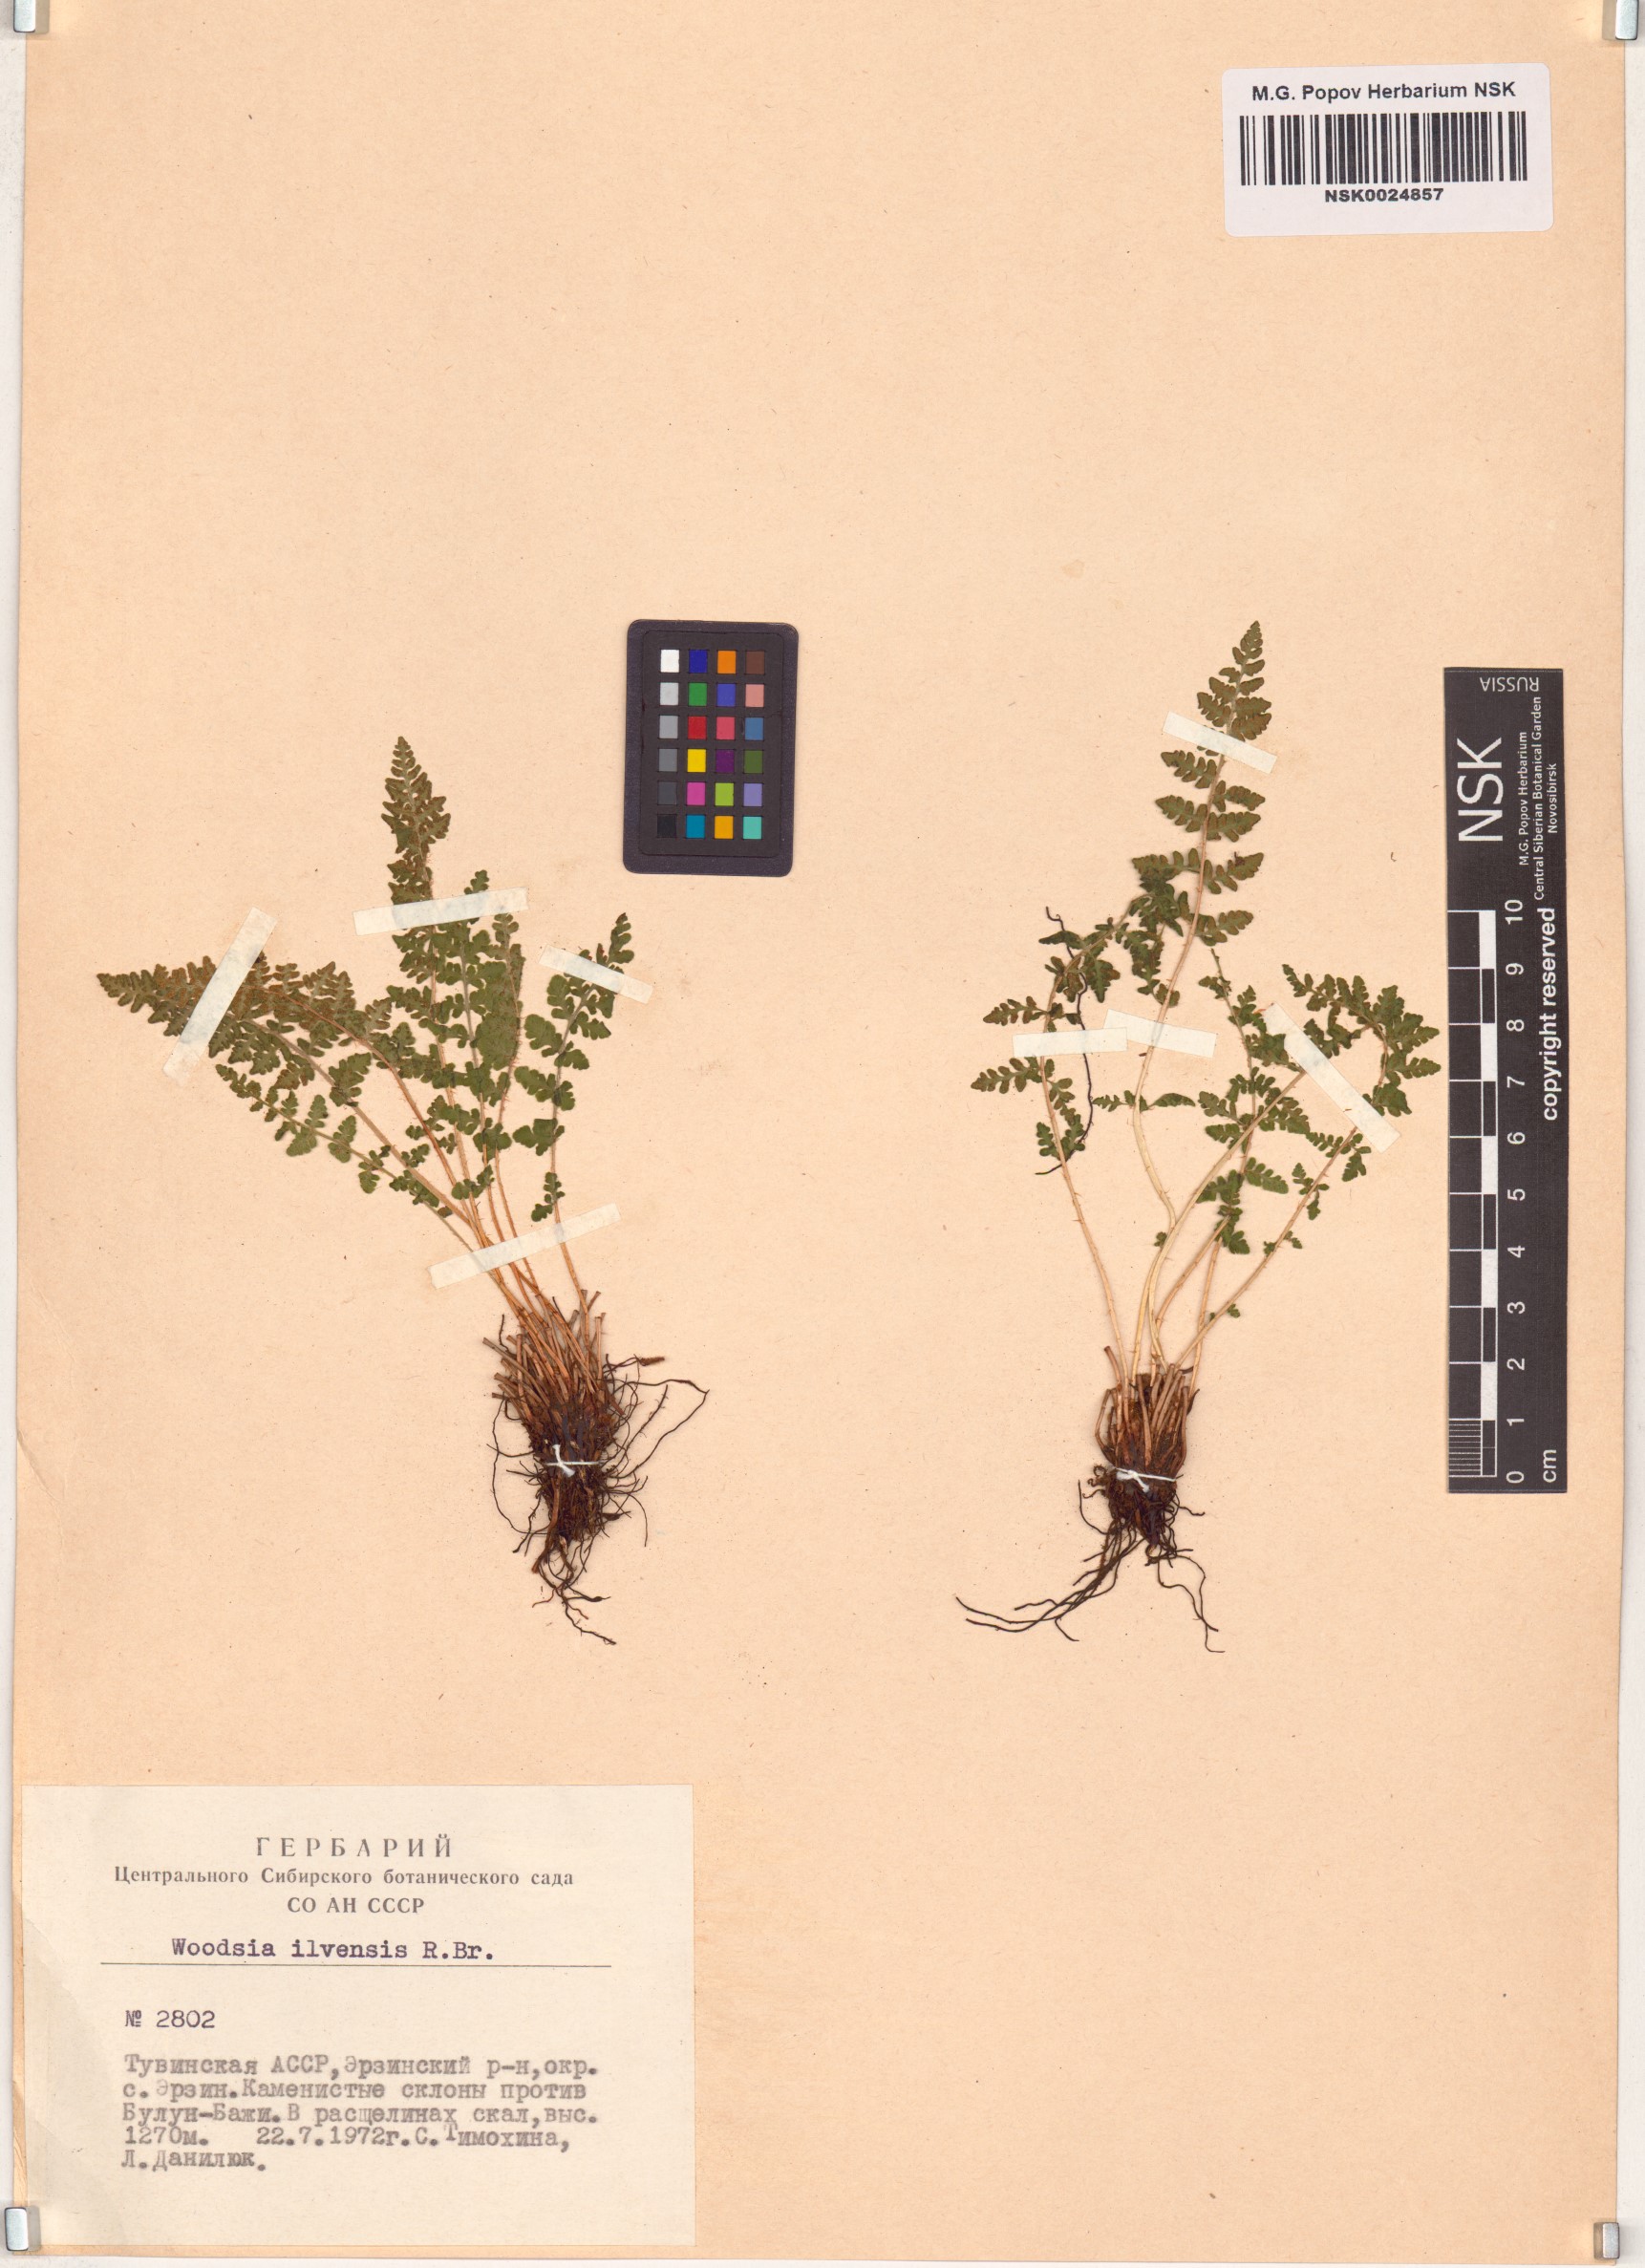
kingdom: Plantae
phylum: Tracheophyta
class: Polypodiopsida
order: Polypodiales
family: Woodsiaceae
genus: Woodsia
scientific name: Woodsia ilvensis
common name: Fragrant woodsia
